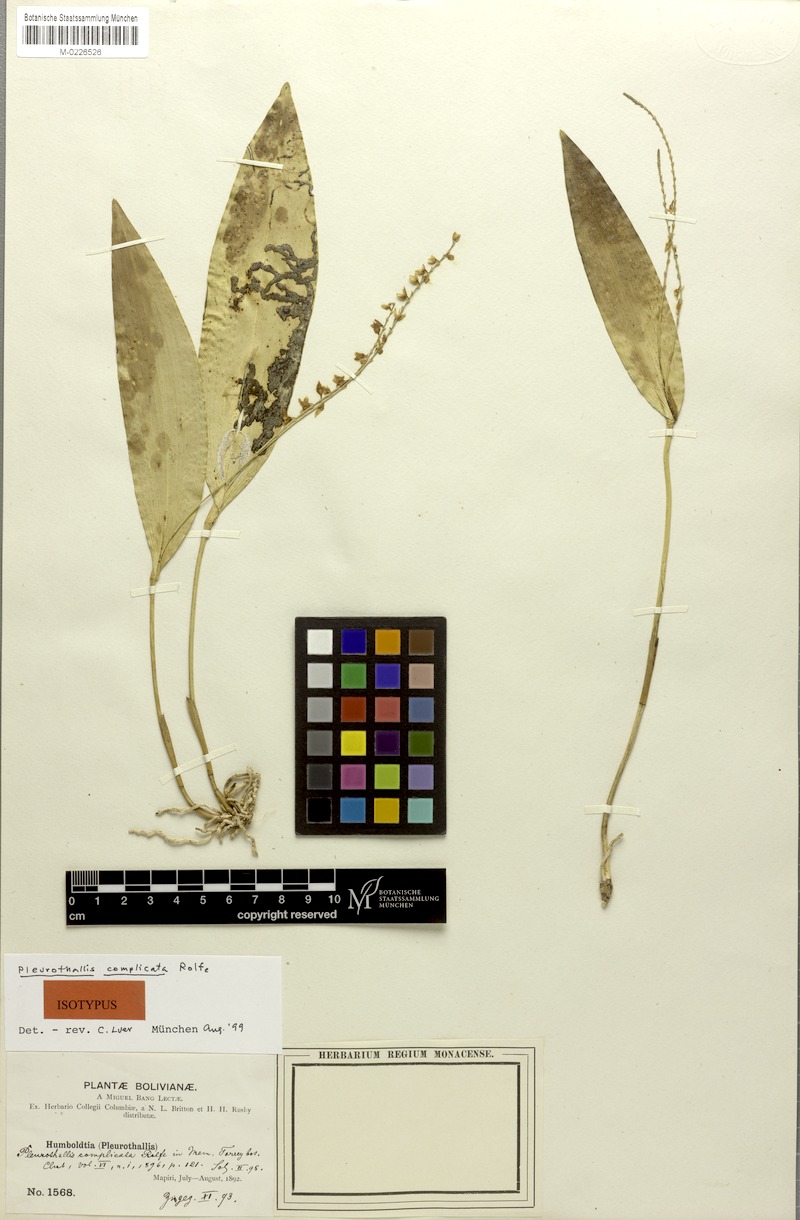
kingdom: Plantae
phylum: Tracheophyta
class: Liliopsida
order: Asparagales
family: Orchidaceae
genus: Pleurothallis
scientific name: Pleurothallis revoluta
